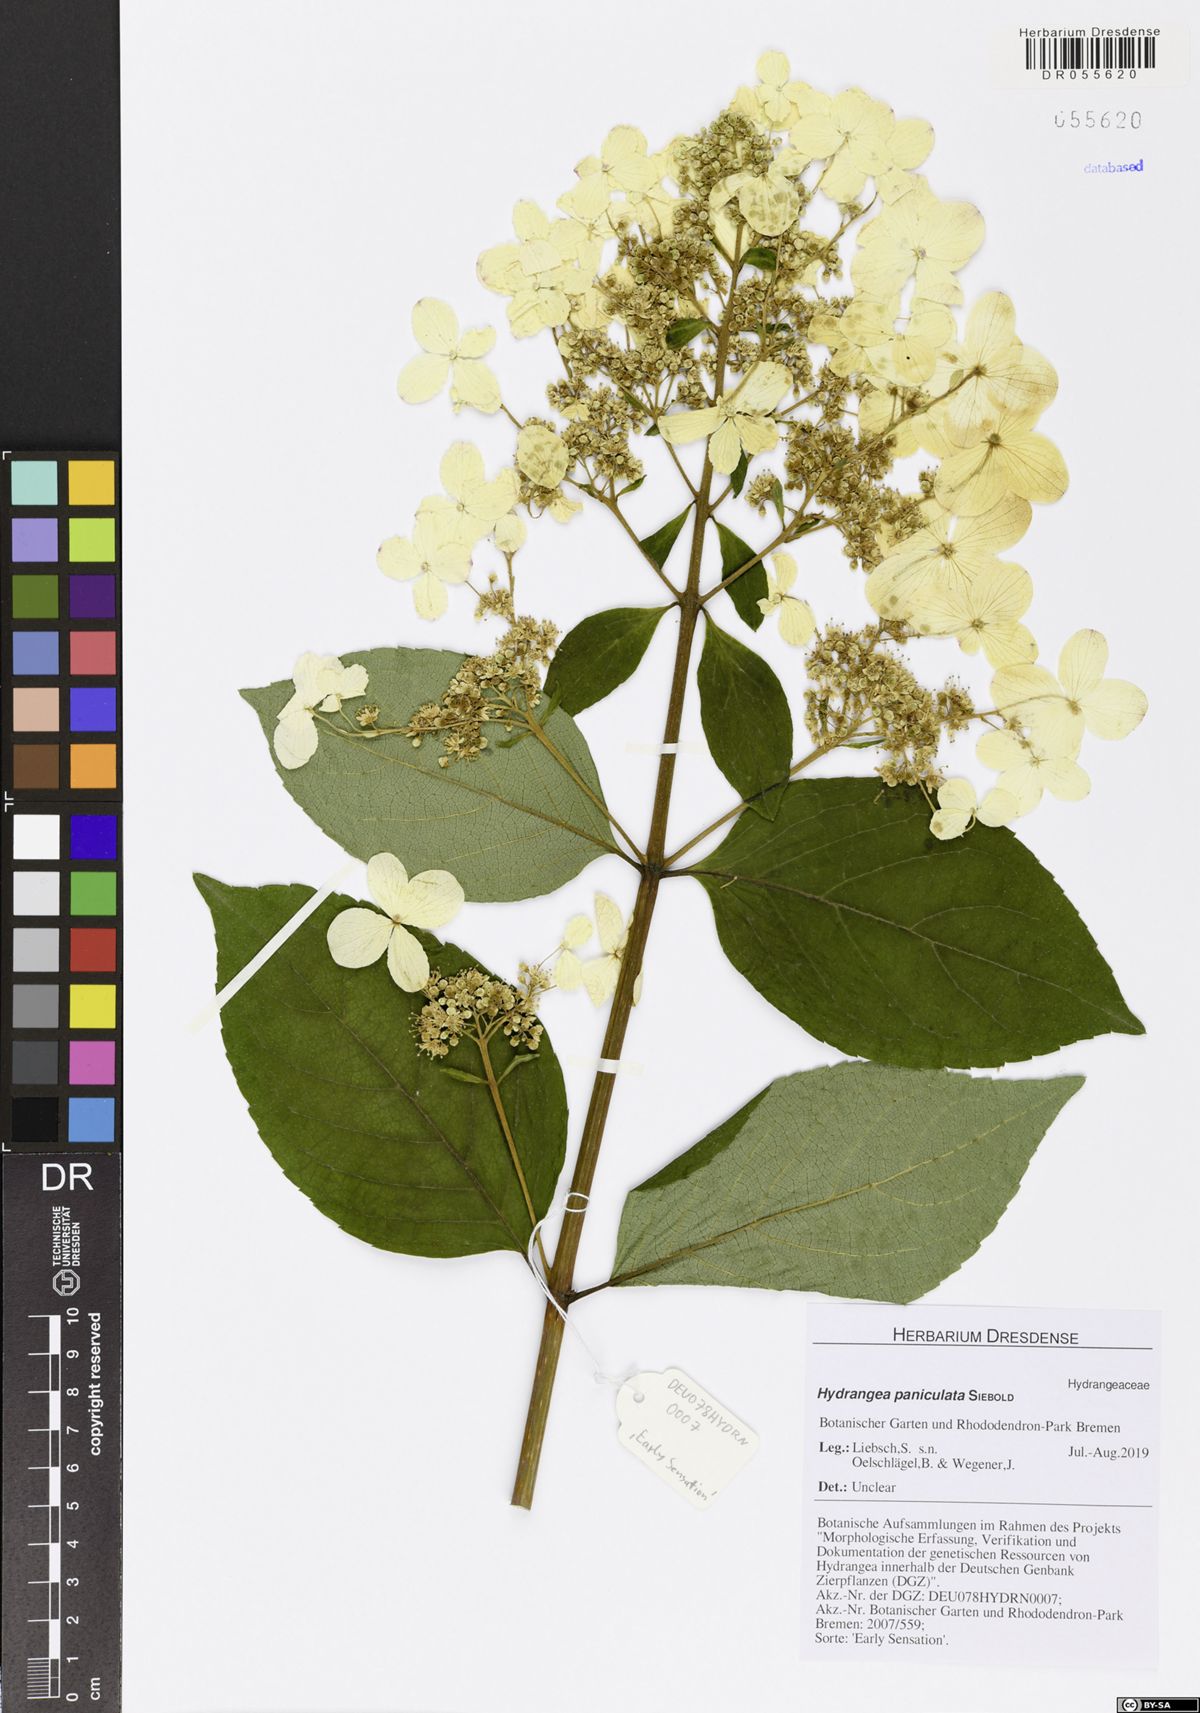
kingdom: Plantae
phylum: Tracheophyta
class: Magnoliopsida
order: Cornales
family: Hydrangeaceae
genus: Hydrangea
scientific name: Hydrangea paniculata
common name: Panicled hydrangea
